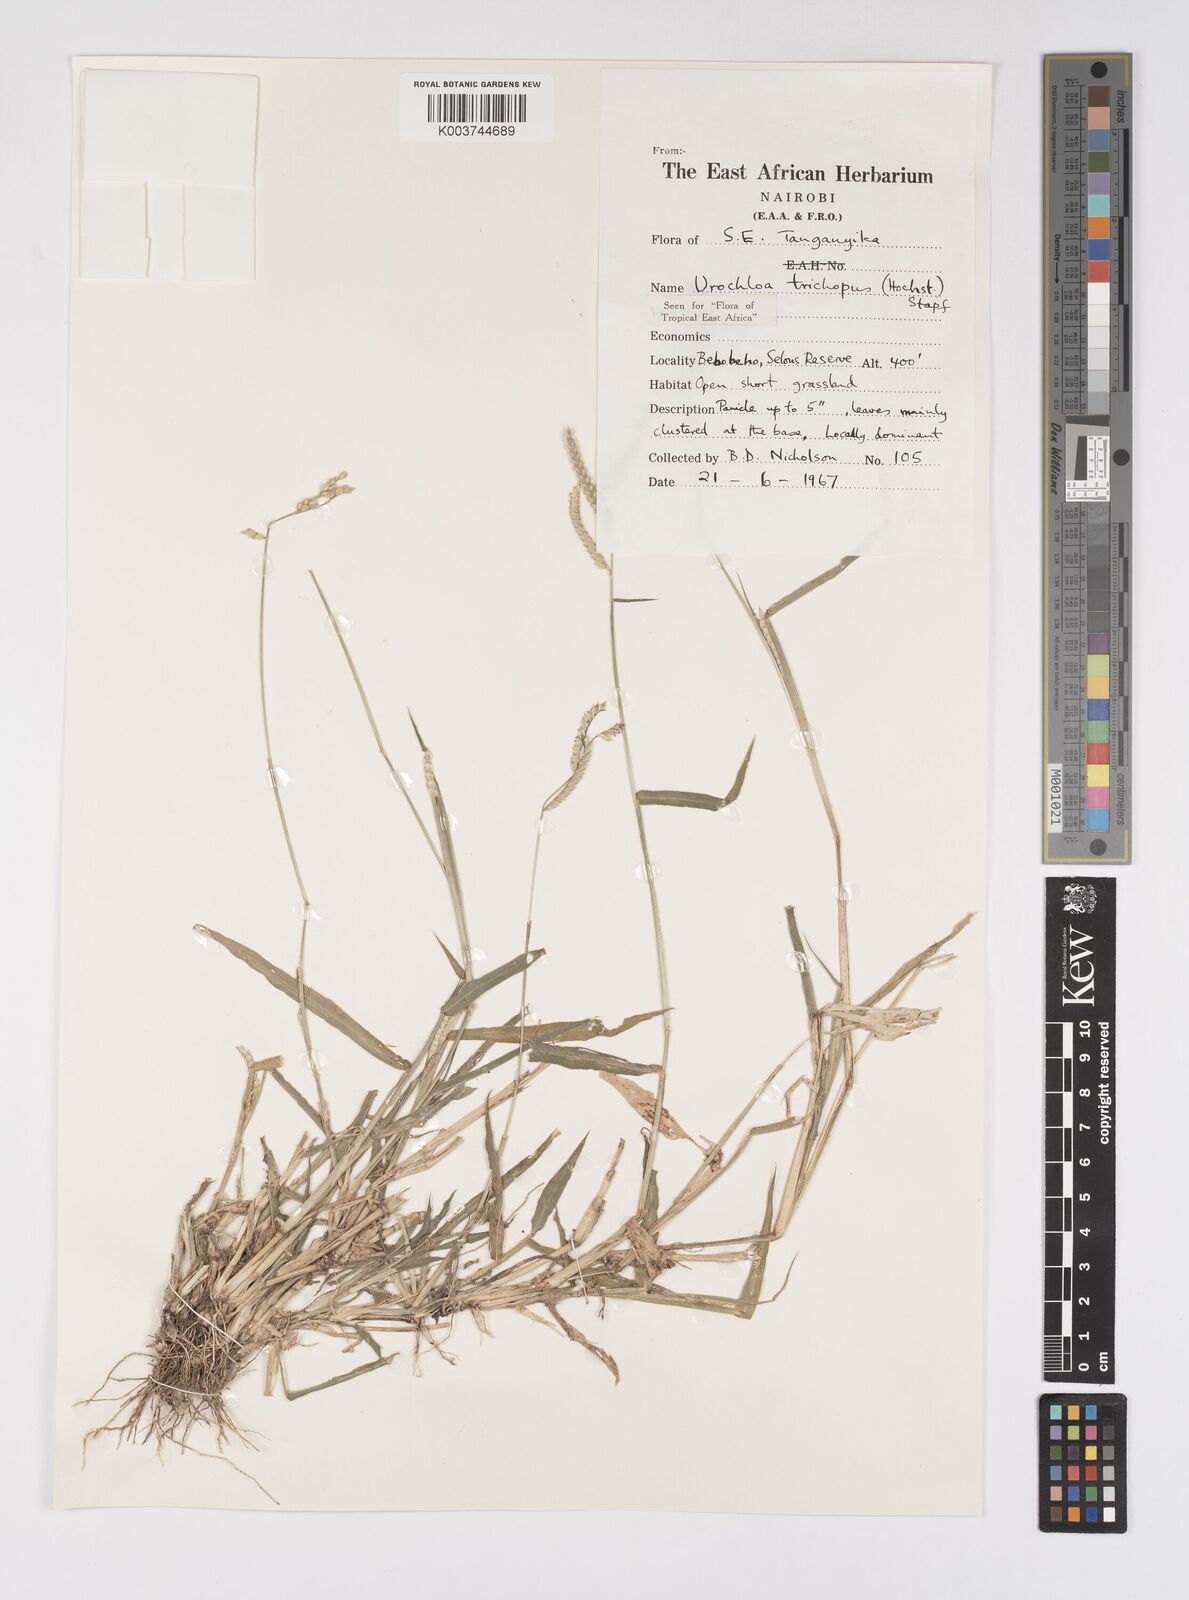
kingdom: Plantae
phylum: Tracheophyta
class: Liliopsida
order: Poales
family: Poaceae
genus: Urochloa
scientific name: Urochloa trichopus
